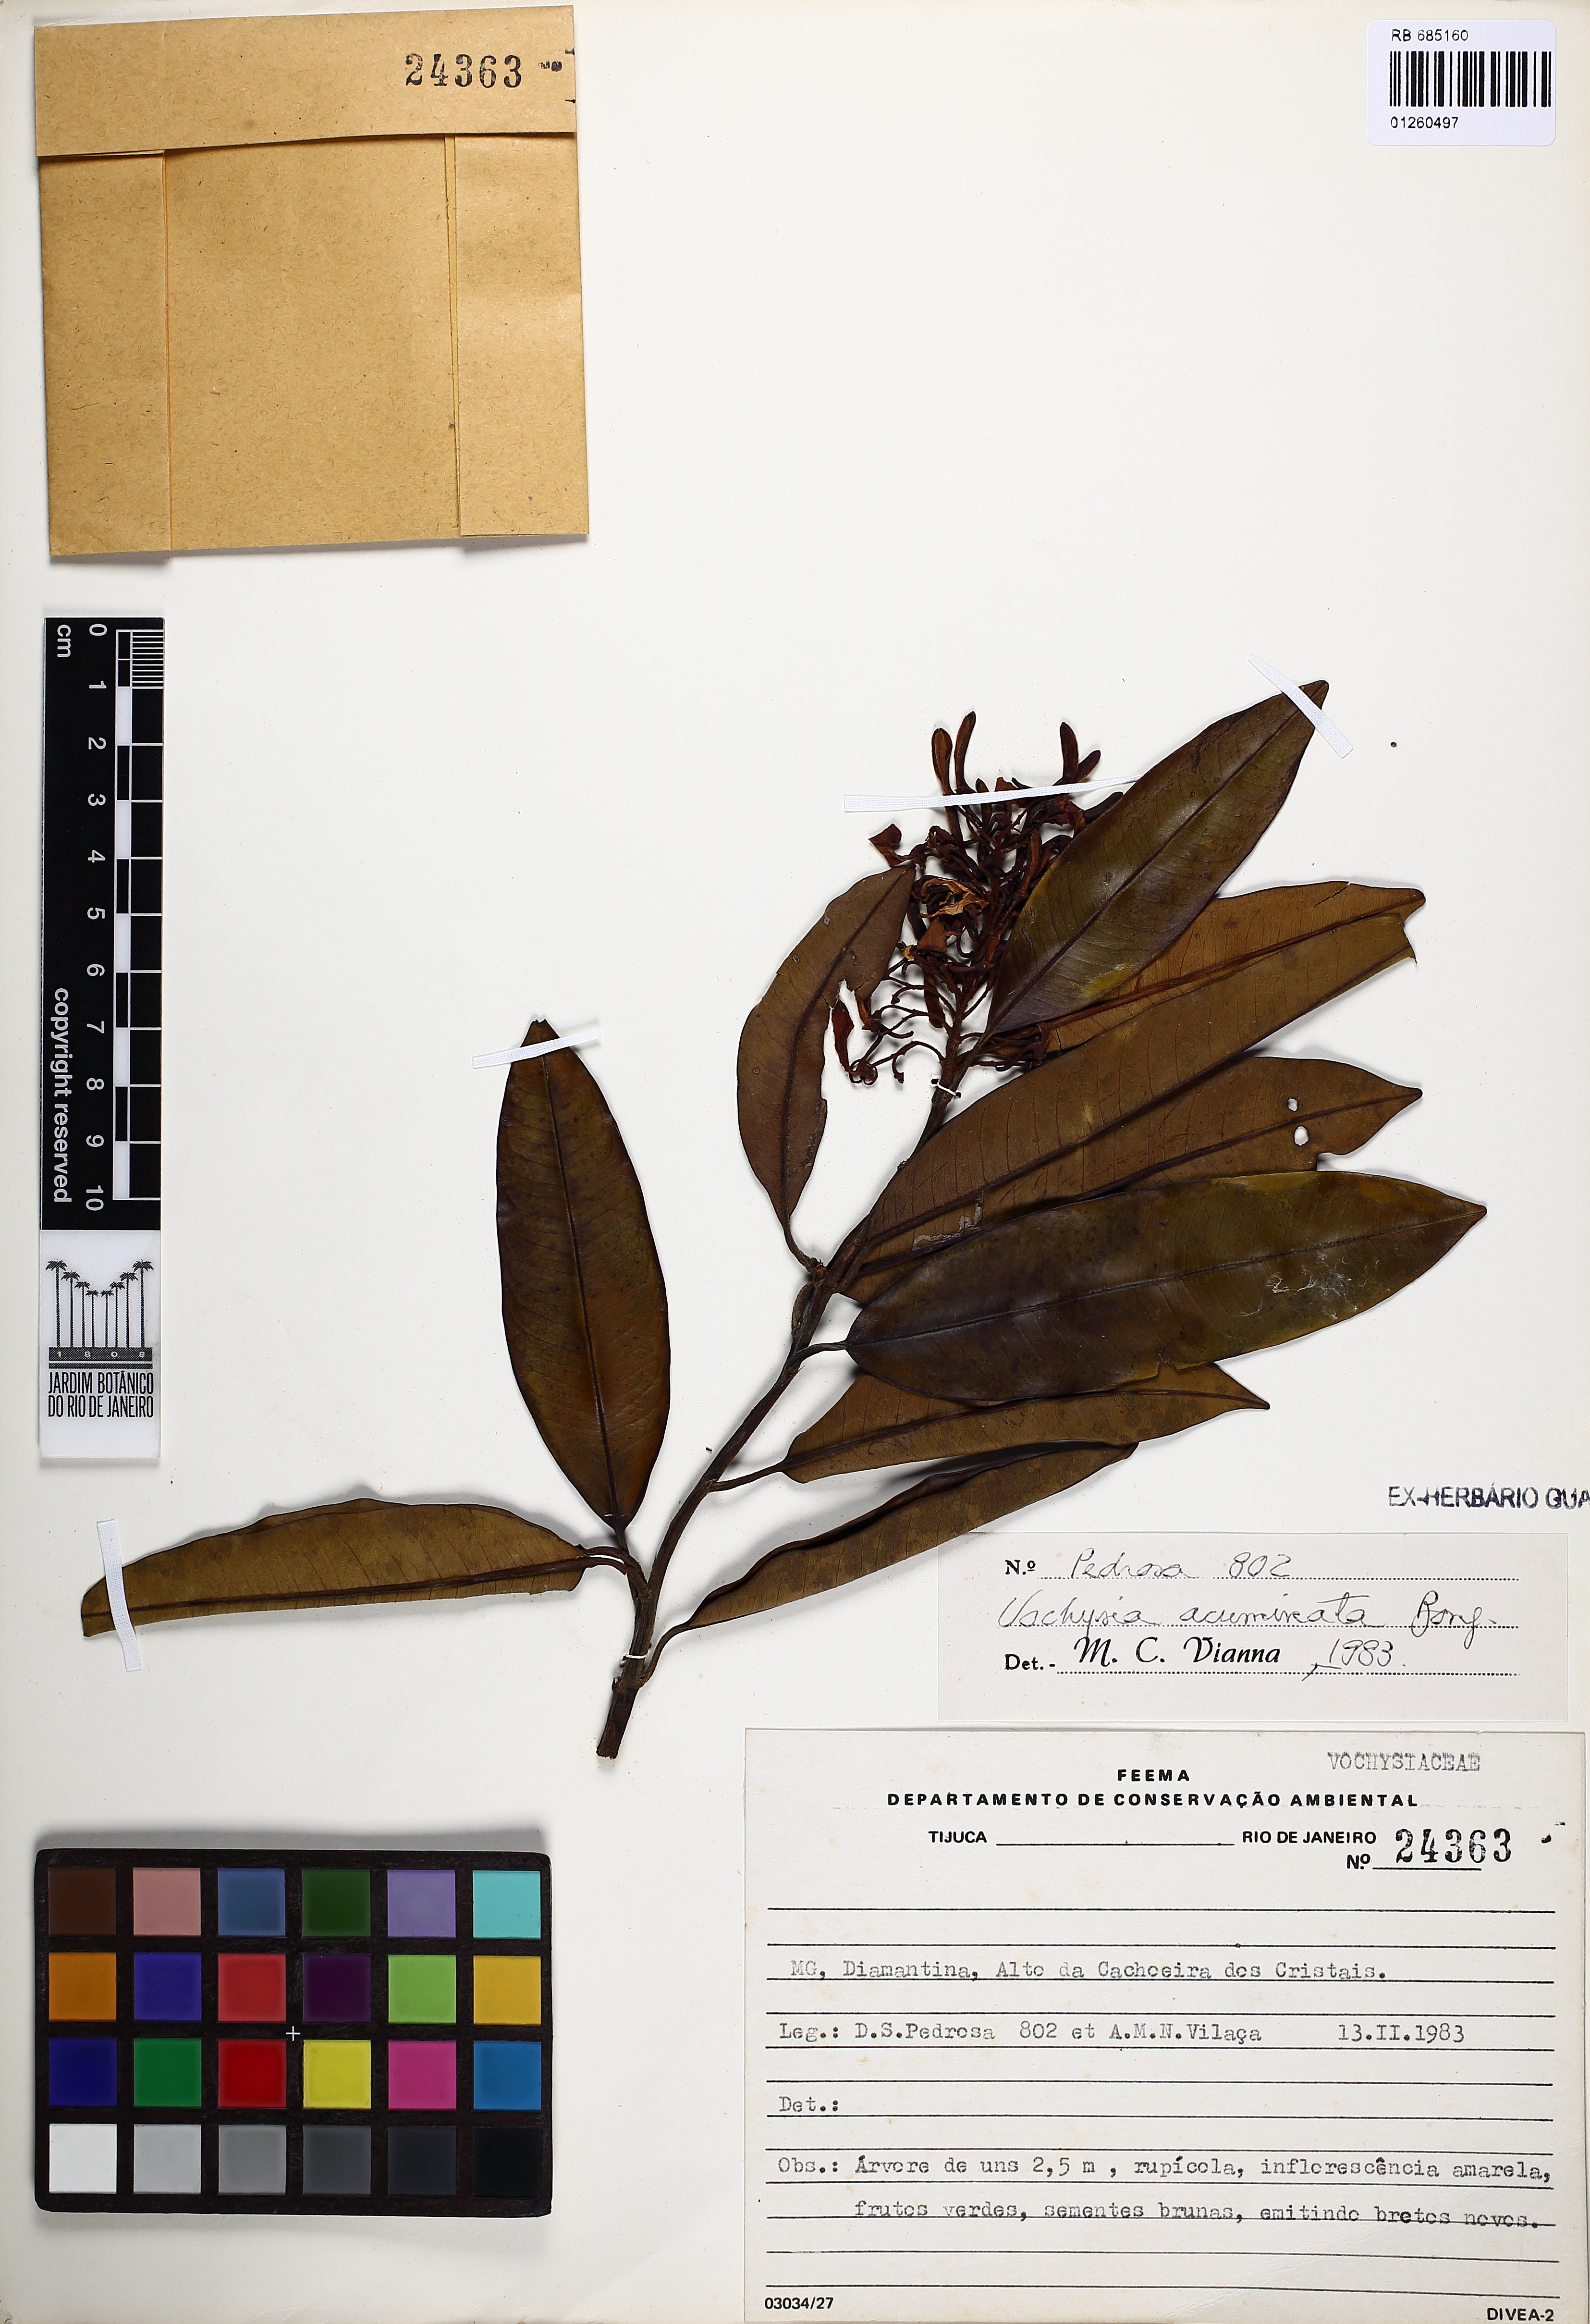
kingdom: Plantae
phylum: Tracheophyta
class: Magnoliopsida
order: Myrtales
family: Vochysiaceae
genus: Vochysia
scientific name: Vochysia acuminata
